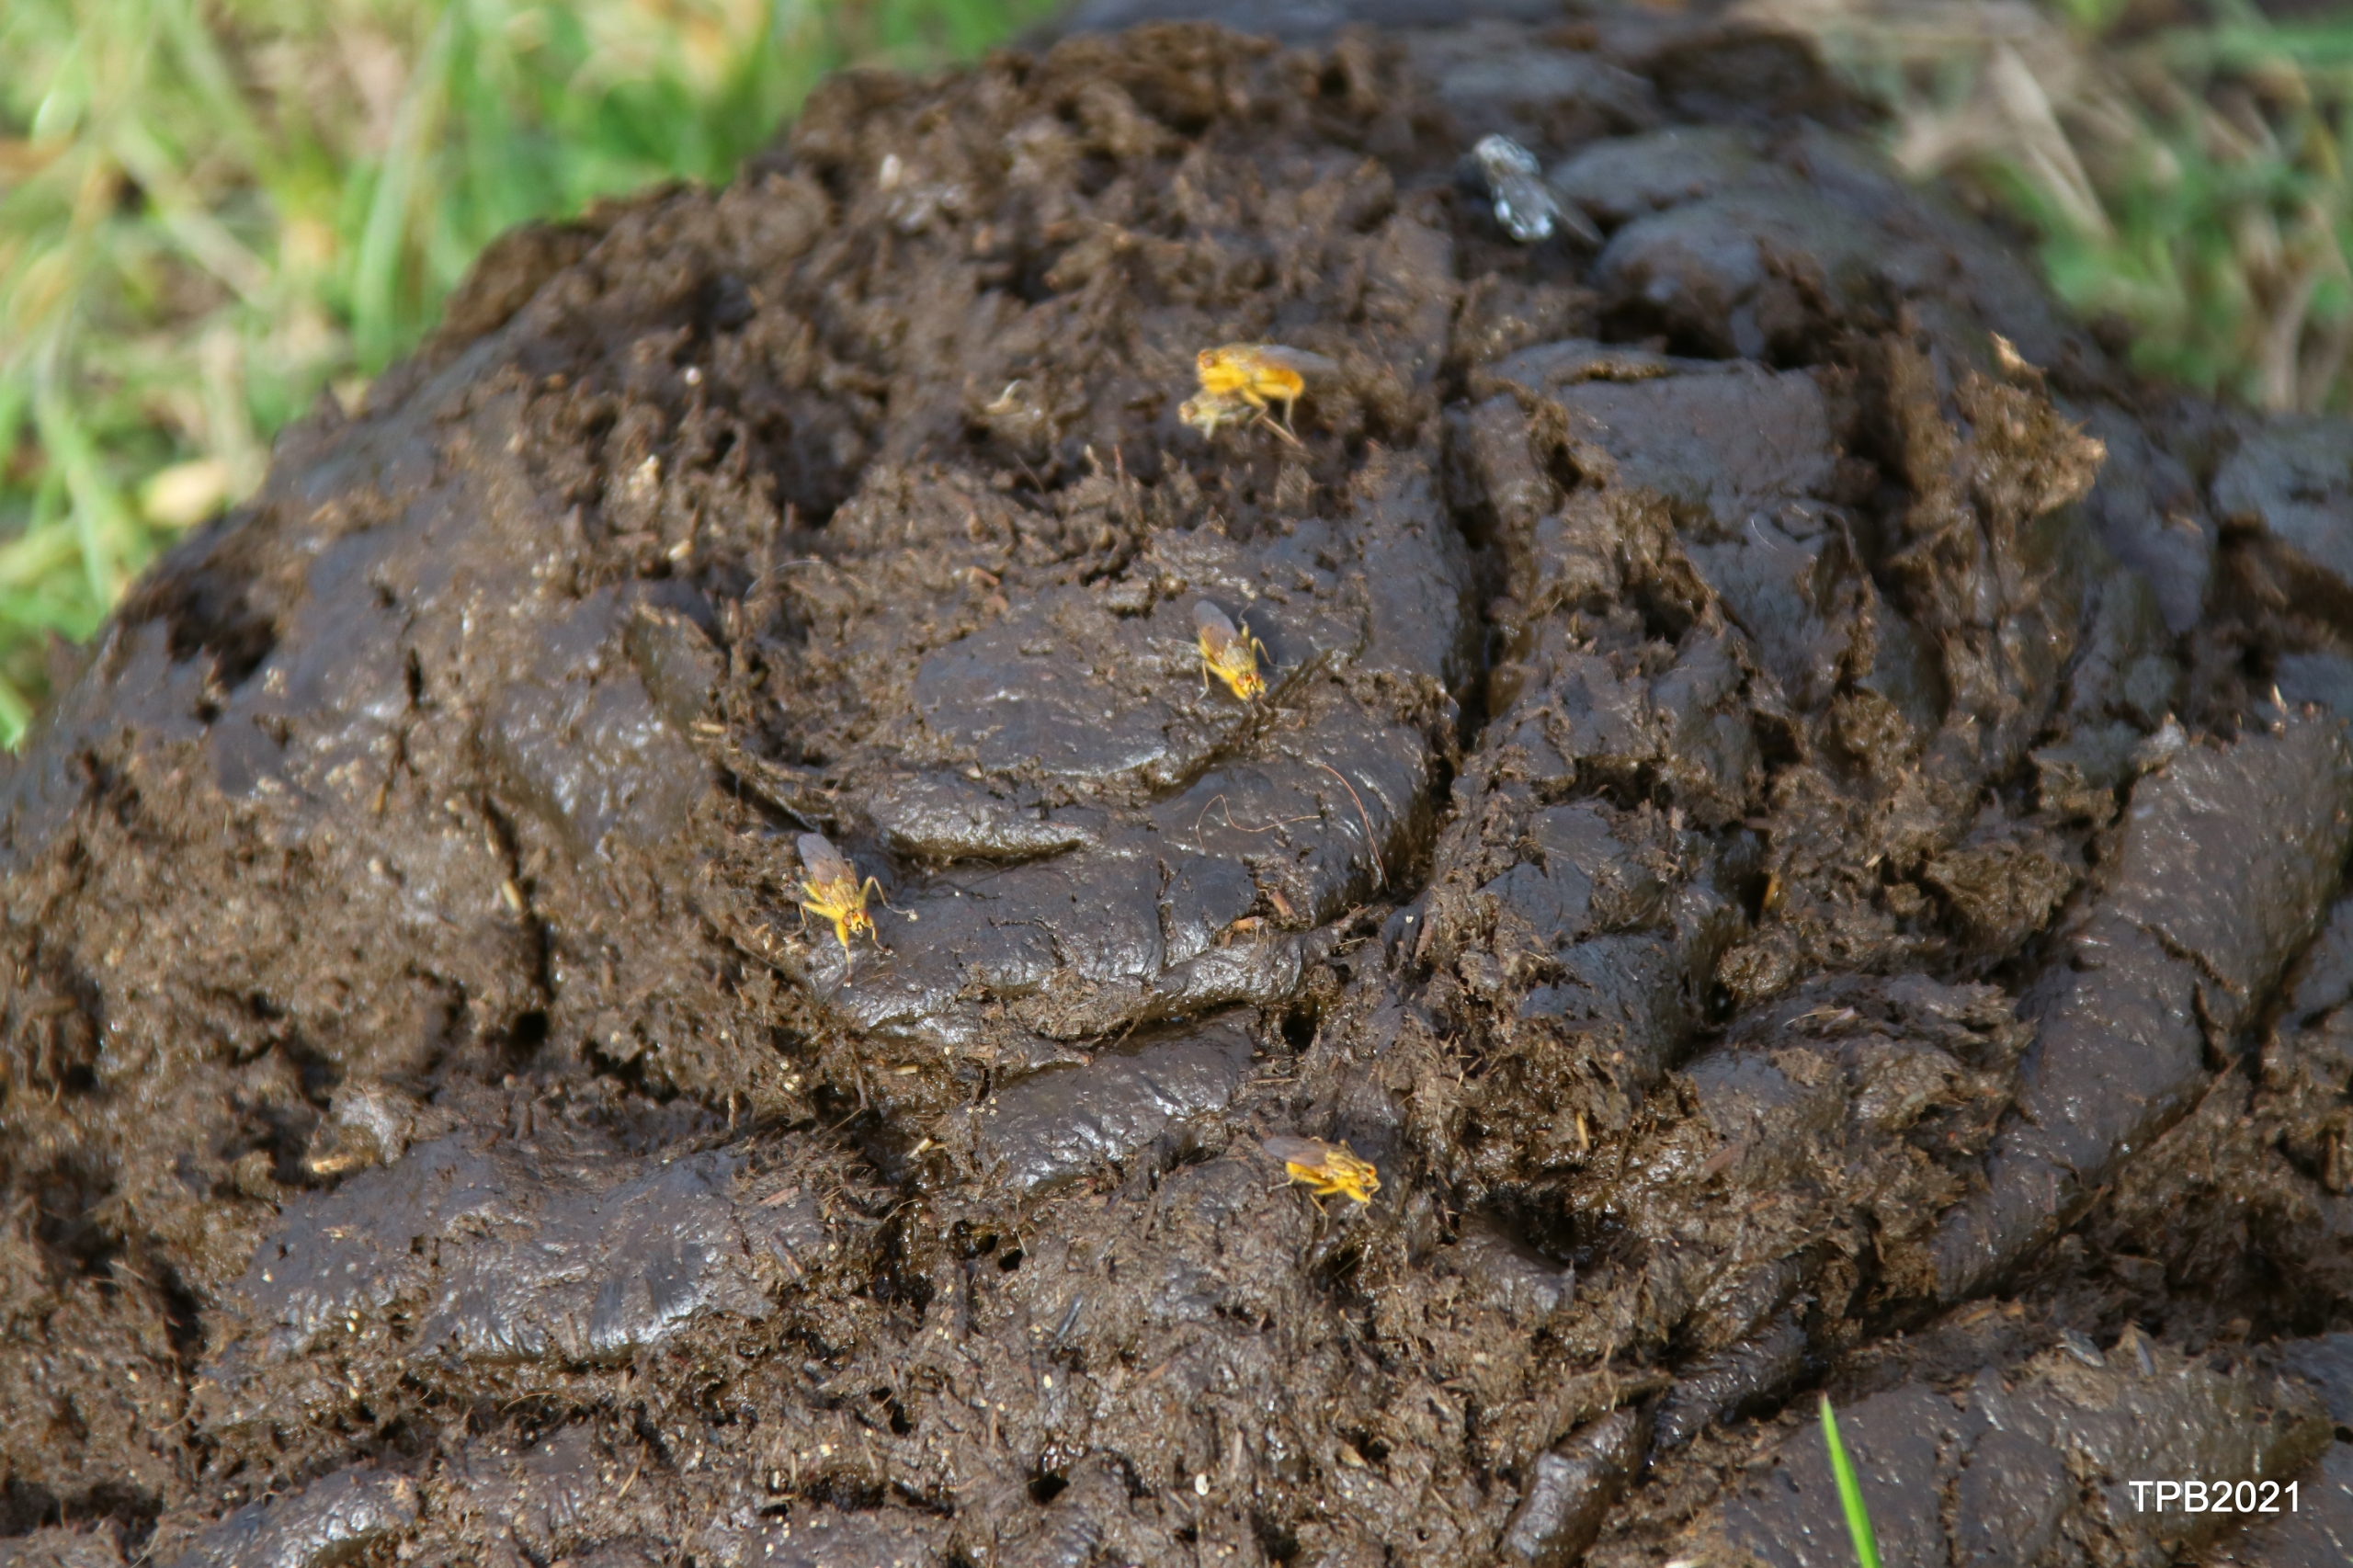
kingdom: Animalia
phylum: Arthropoda
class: Insecta
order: Diptera
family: Scathophagidae
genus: Scathophaga
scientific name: Scathophaga stercoraria
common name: Almindelig gødningsflue
